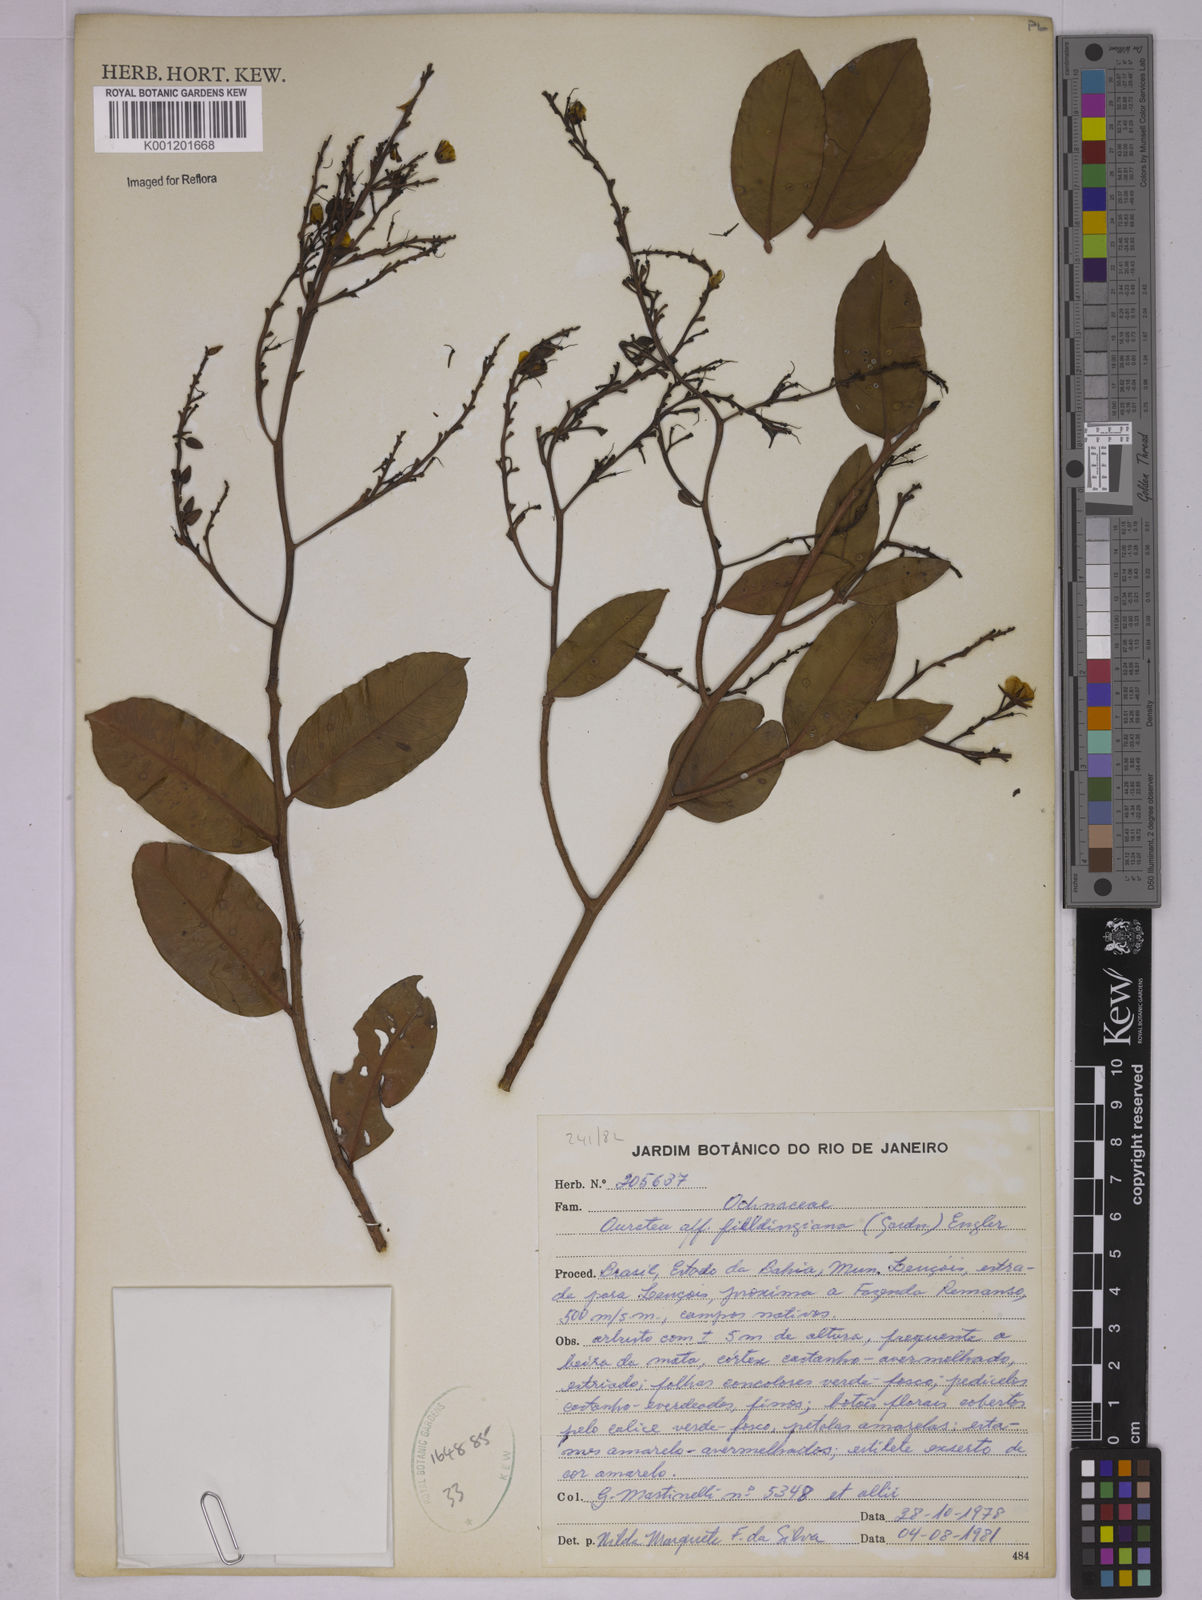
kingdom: Plantae
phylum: Tracheophyta
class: Magnoliopsida
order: Malpighiales
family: Ochnaceae
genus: Ouratea
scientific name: Ouratea fieldingiana
